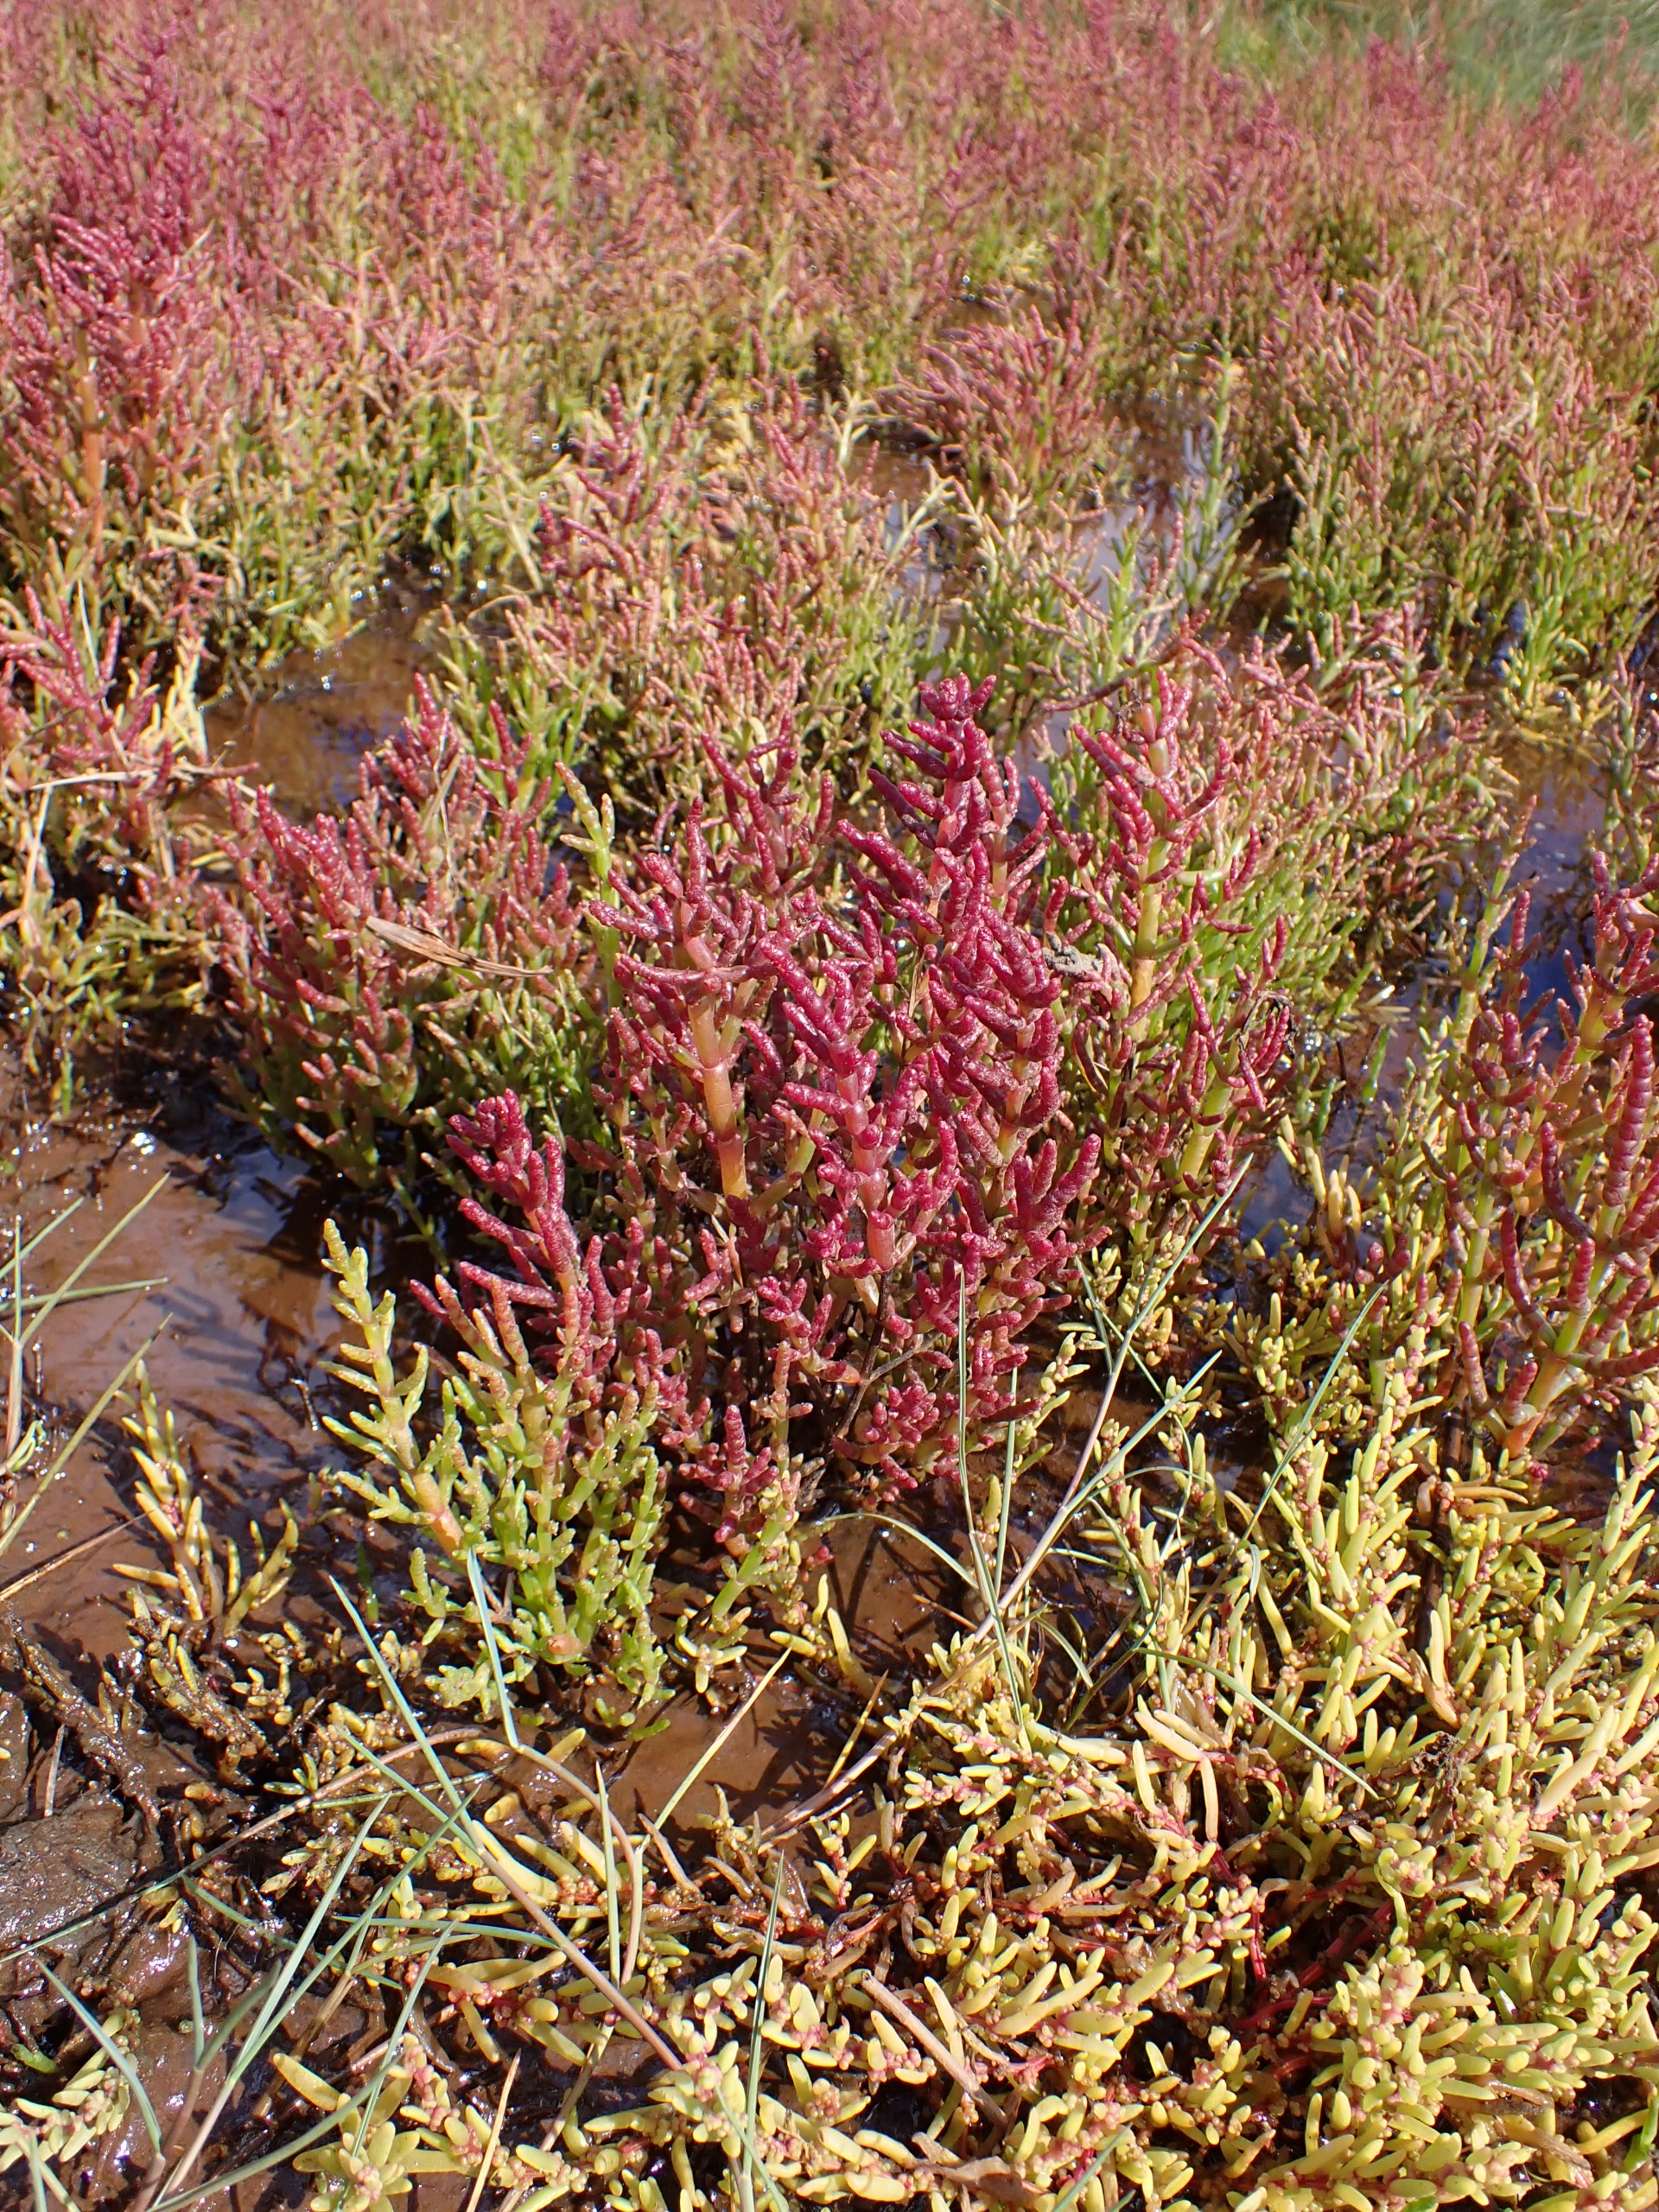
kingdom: Plantae
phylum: Tracheophyta
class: Magnoliopsida
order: Caryophyllales
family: Amaranthaceae
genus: Salicornia
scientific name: Salicornia europaea
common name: Almindelig salturt
